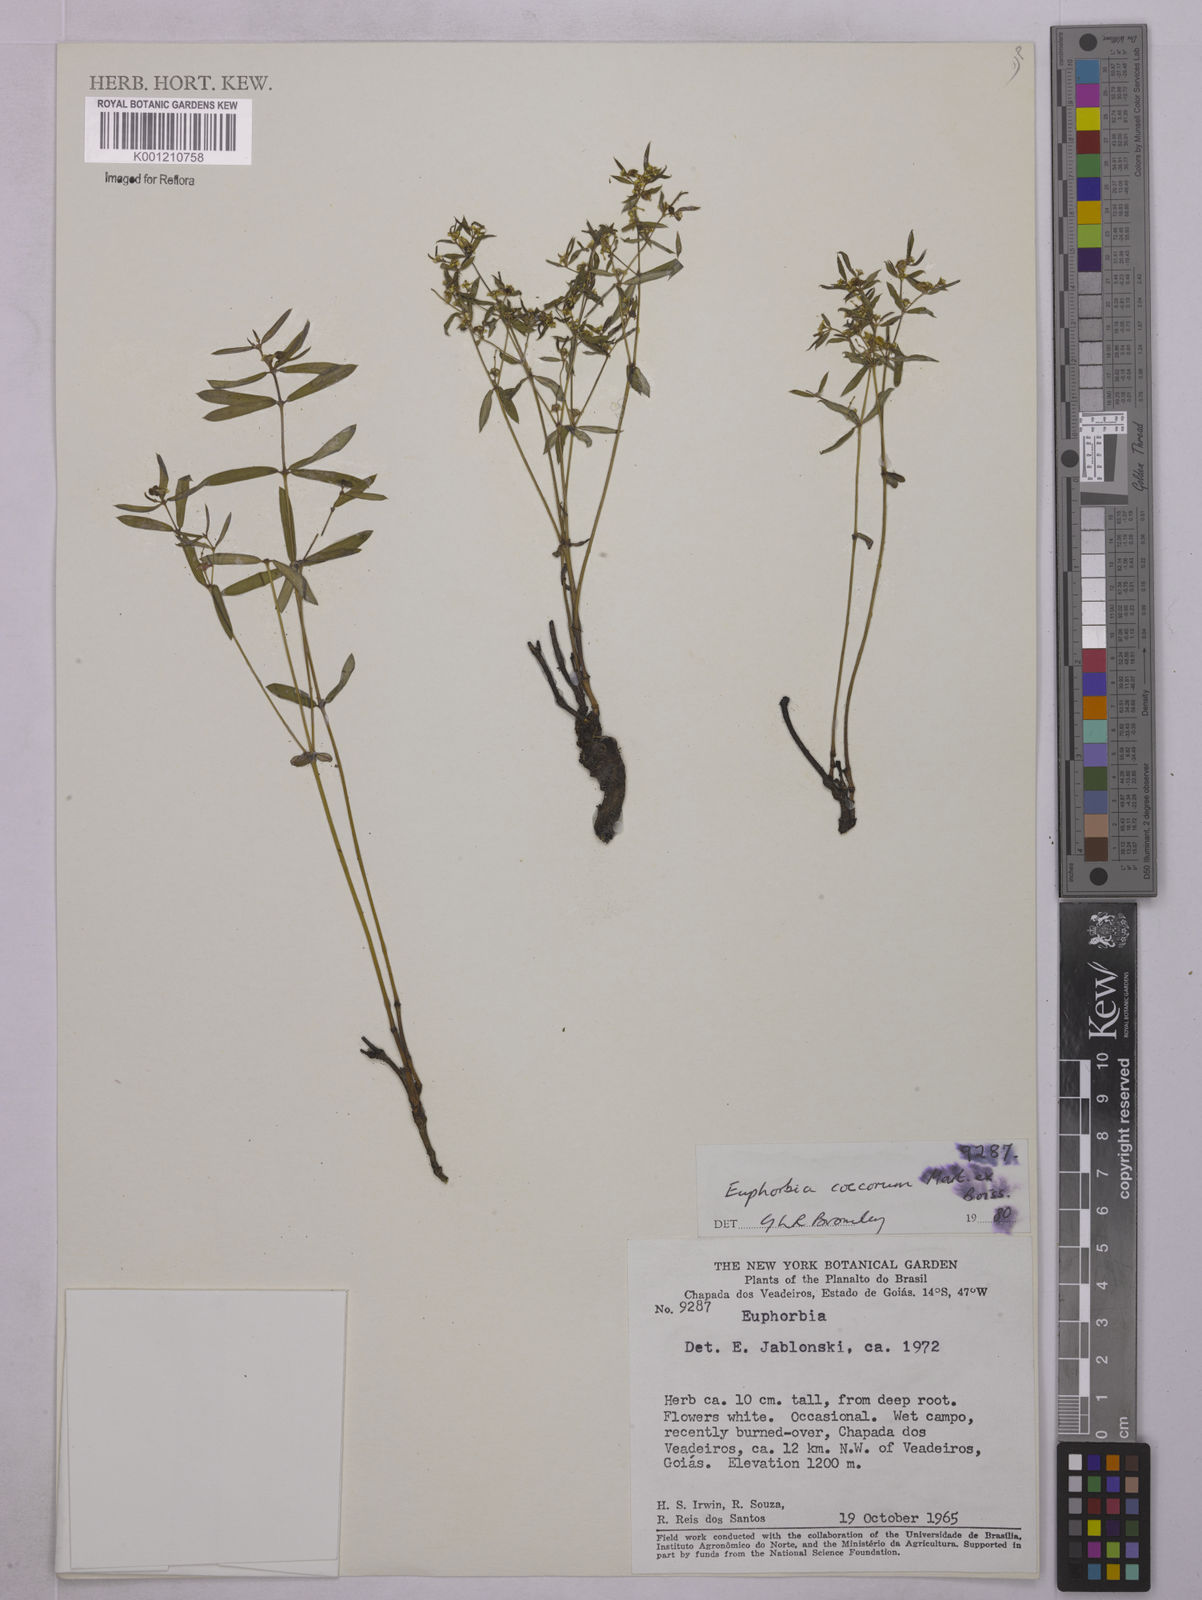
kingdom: Plantae
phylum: Tracheophyta
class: Magnoliopsida
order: Malpighiales
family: Euphorbiaceae
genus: Euphorbia
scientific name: Euphorbia potentilloides
